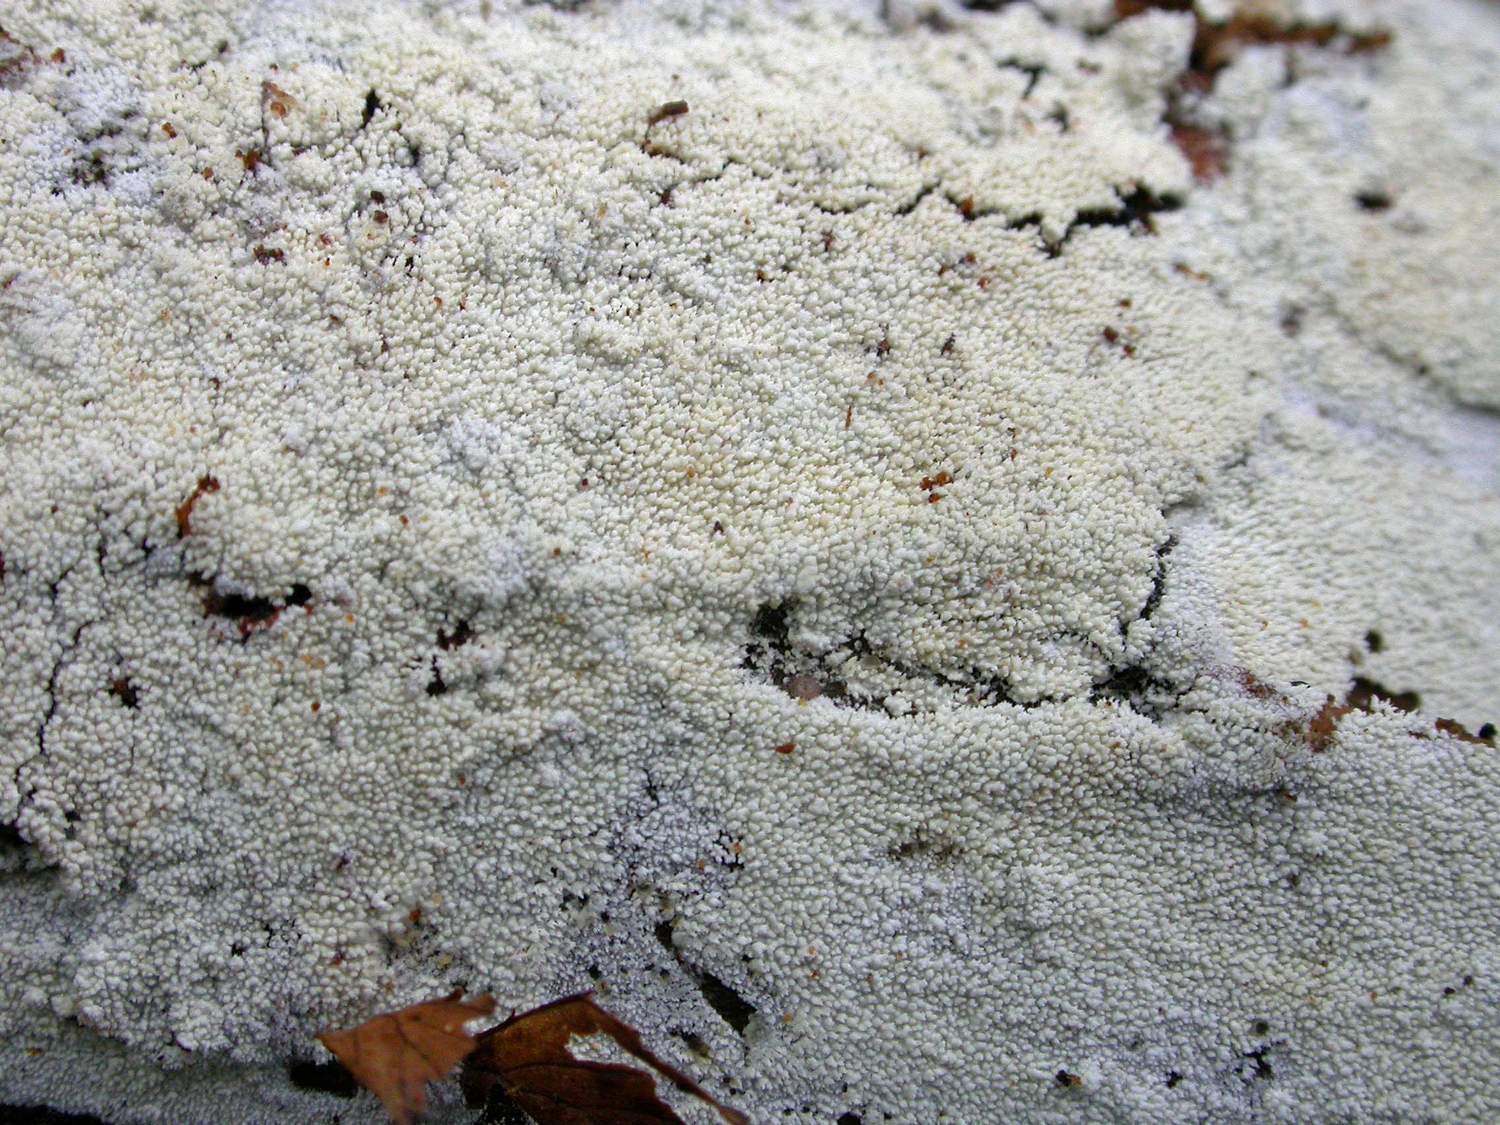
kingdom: Fungi
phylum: Basidiomycota
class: Agaricomycetes
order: Hymenochaetales
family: Schizoporaceae
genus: Xylodon
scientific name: Xylodon nesporii
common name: fintandet tandsvamp
